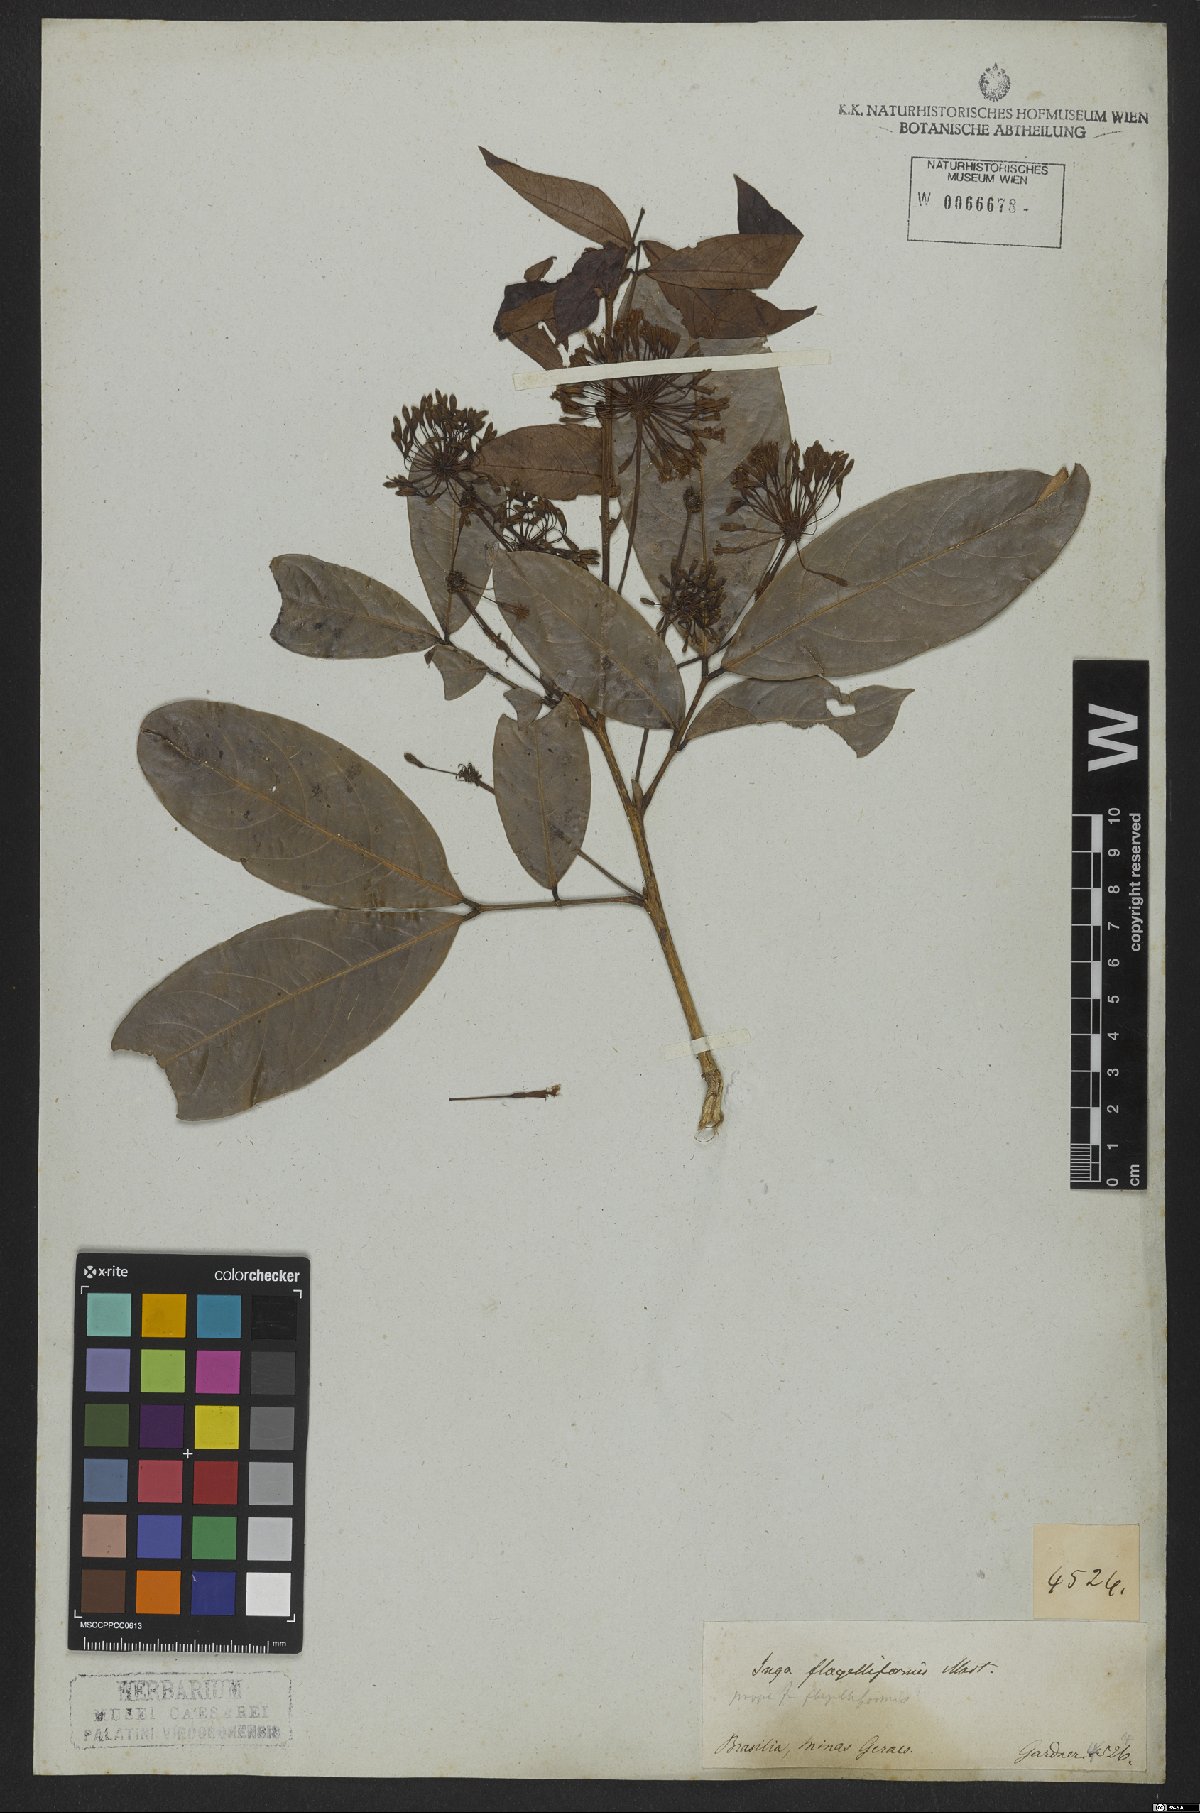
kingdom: Plantae
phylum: Tracheophyta
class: Magnoliopsida
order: Fabales
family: Fabaceae
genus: Inga
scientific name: Inga flagelliformis
